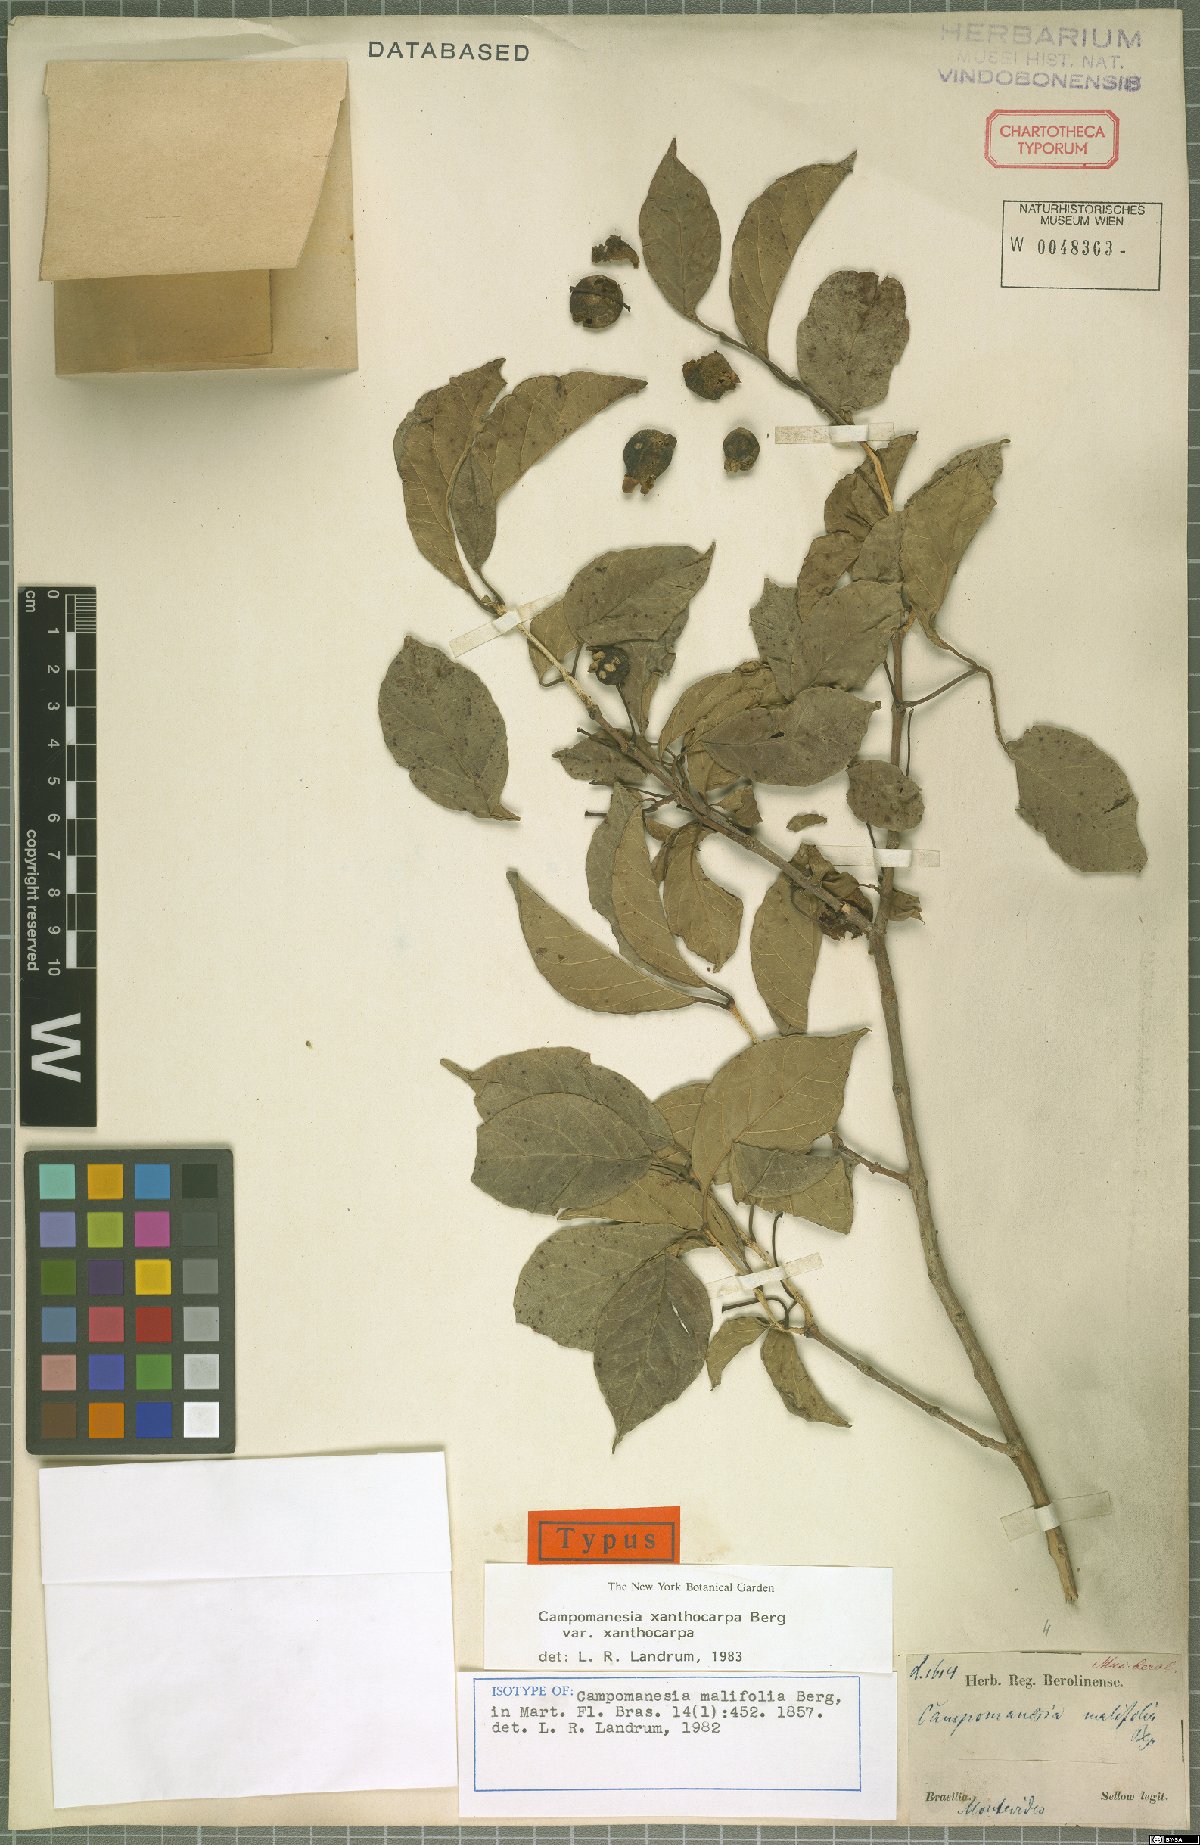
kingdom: Plantae
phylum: Tracheophyta
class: Magnoliopsida
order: Myrtales
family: Myrtaceae
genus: Campomanesia
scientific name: Campomanesia xanthocarpa
